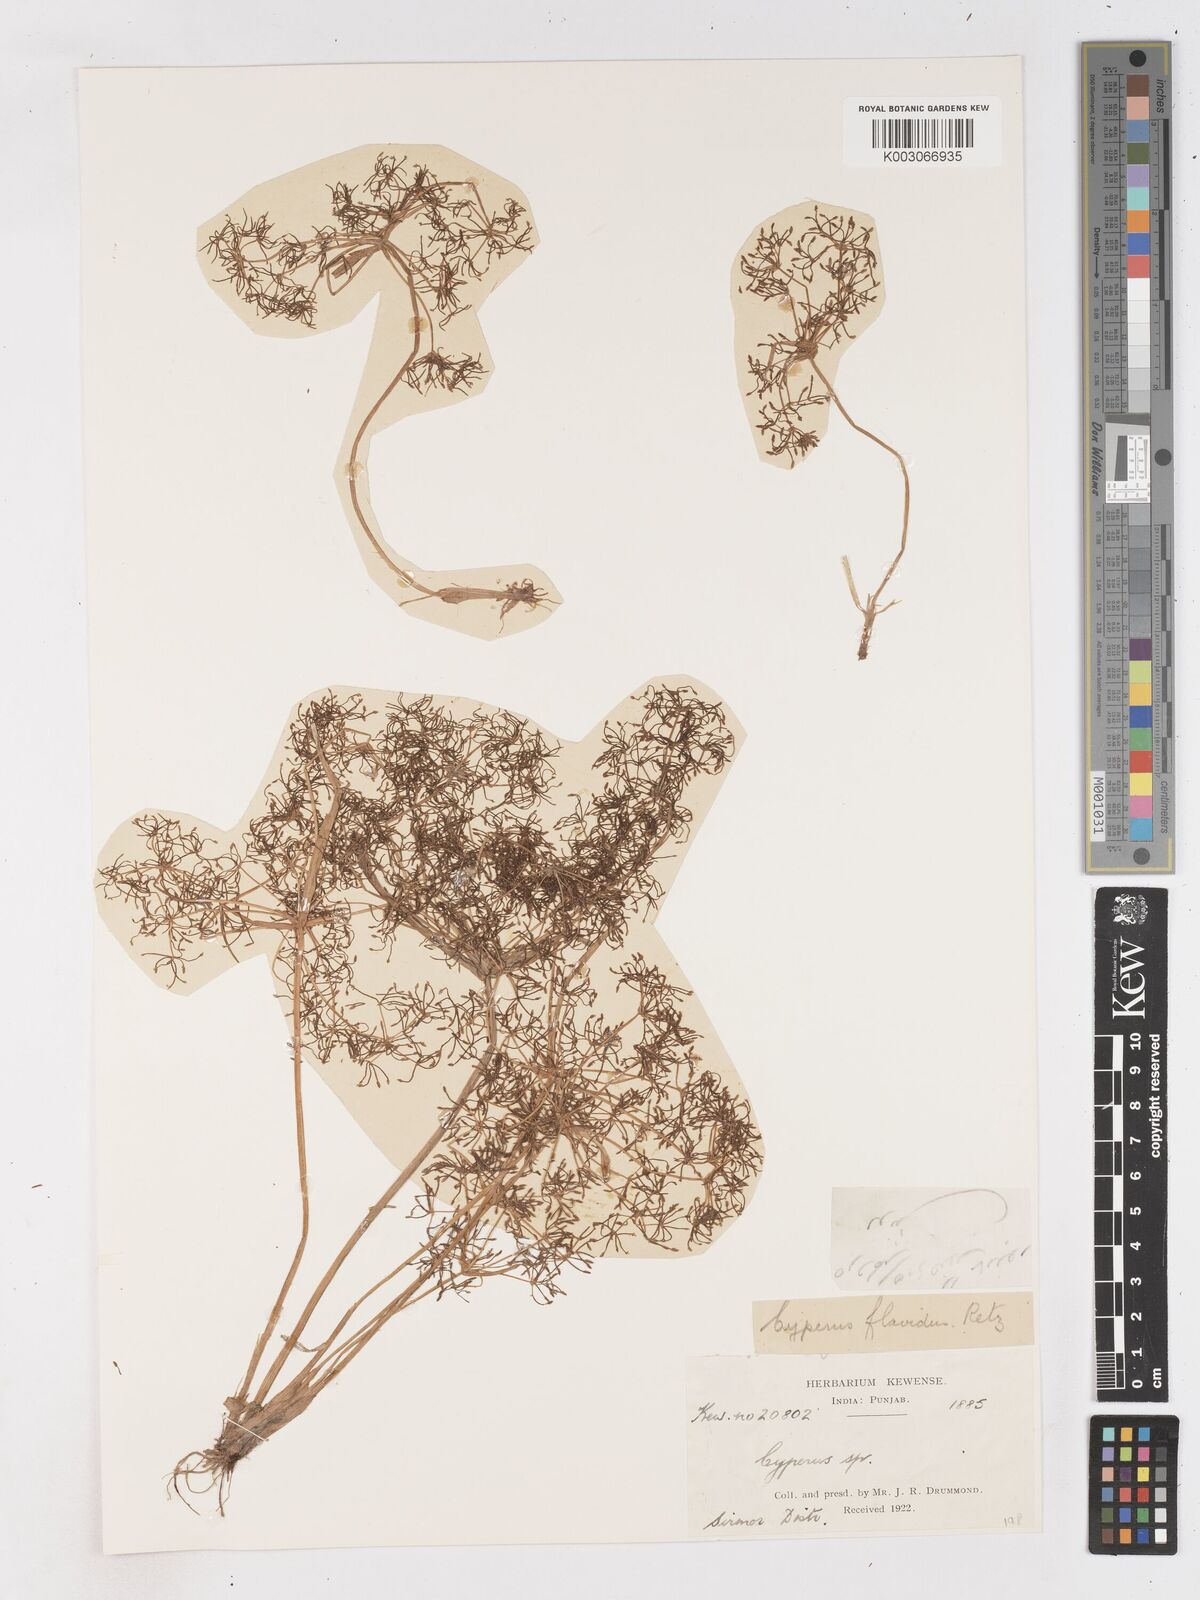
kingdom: Plantae
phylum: Tracheophyta
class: Liliopsida
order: Poales
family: Cyperaceae
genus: Cyperus
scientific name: Cyperus tenuispica
